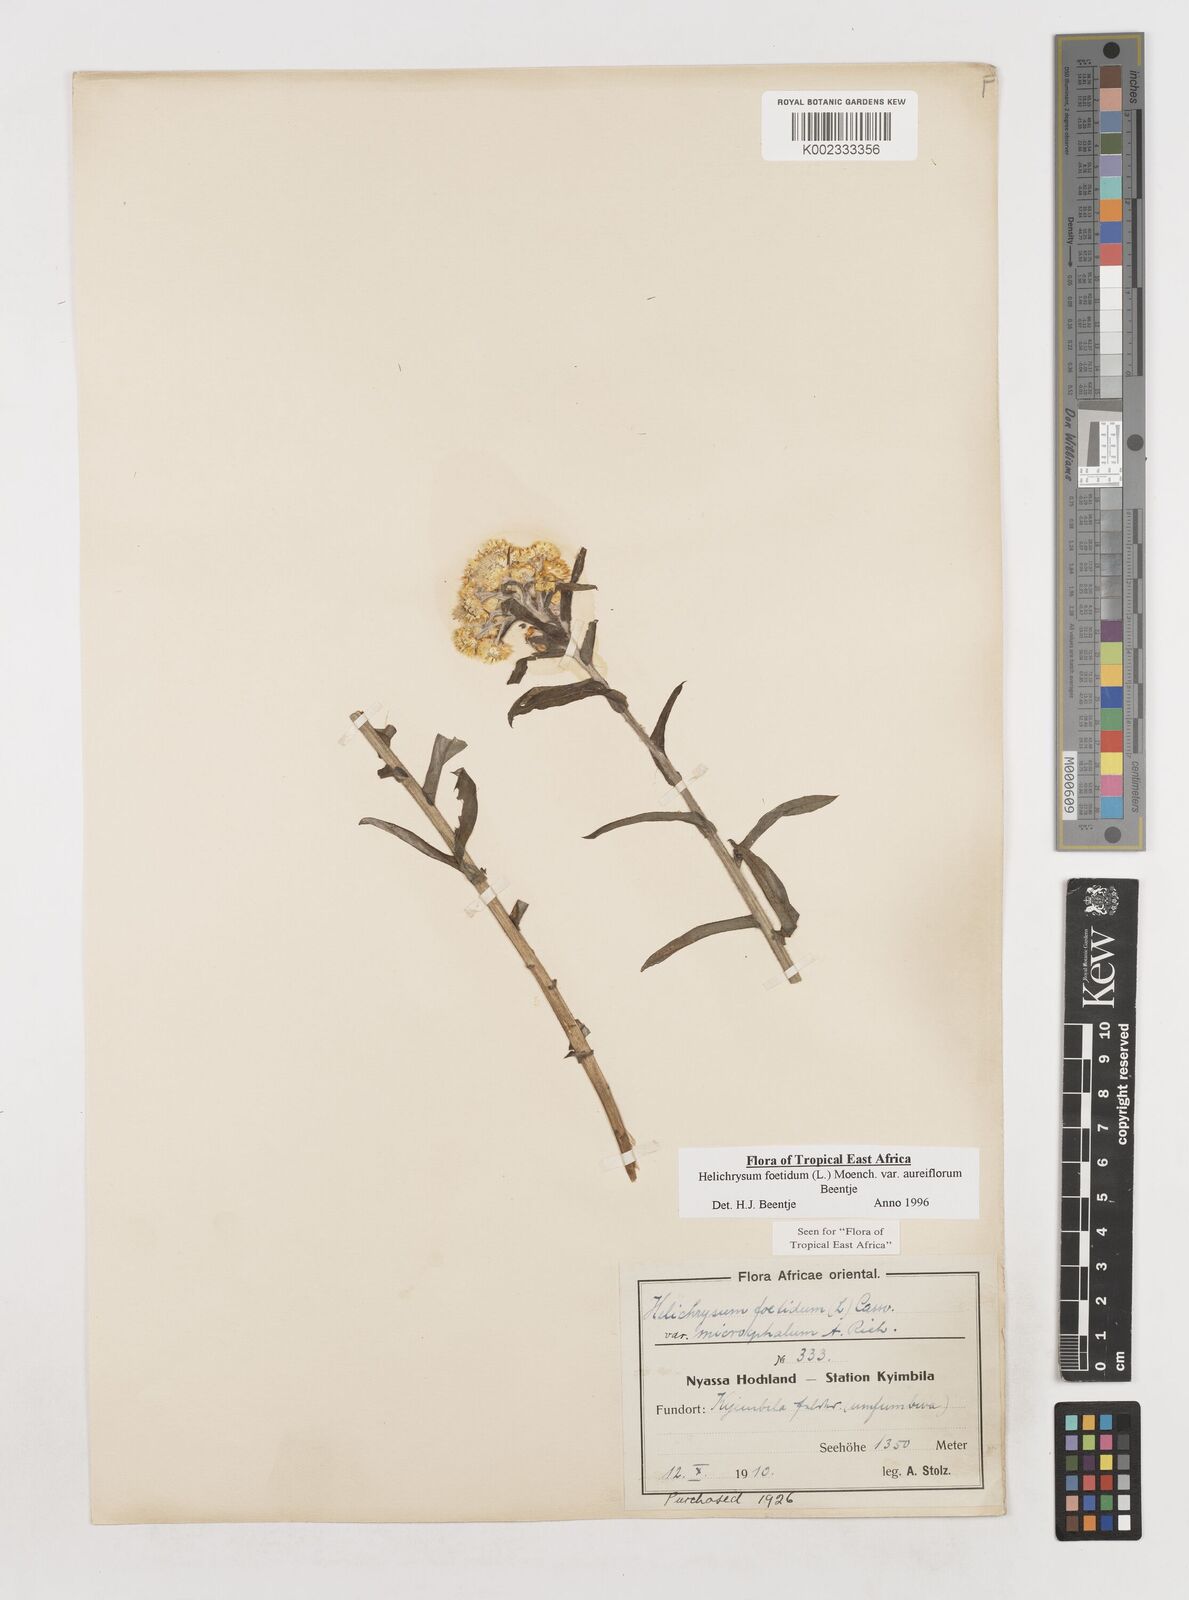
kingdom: Plantae
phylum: Tracheophyta
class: Magnoliopsida
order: Asterales
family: Asteraceae
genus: Helichrysum
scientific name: Helichrysum foetidum
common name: Stinking everlasting
